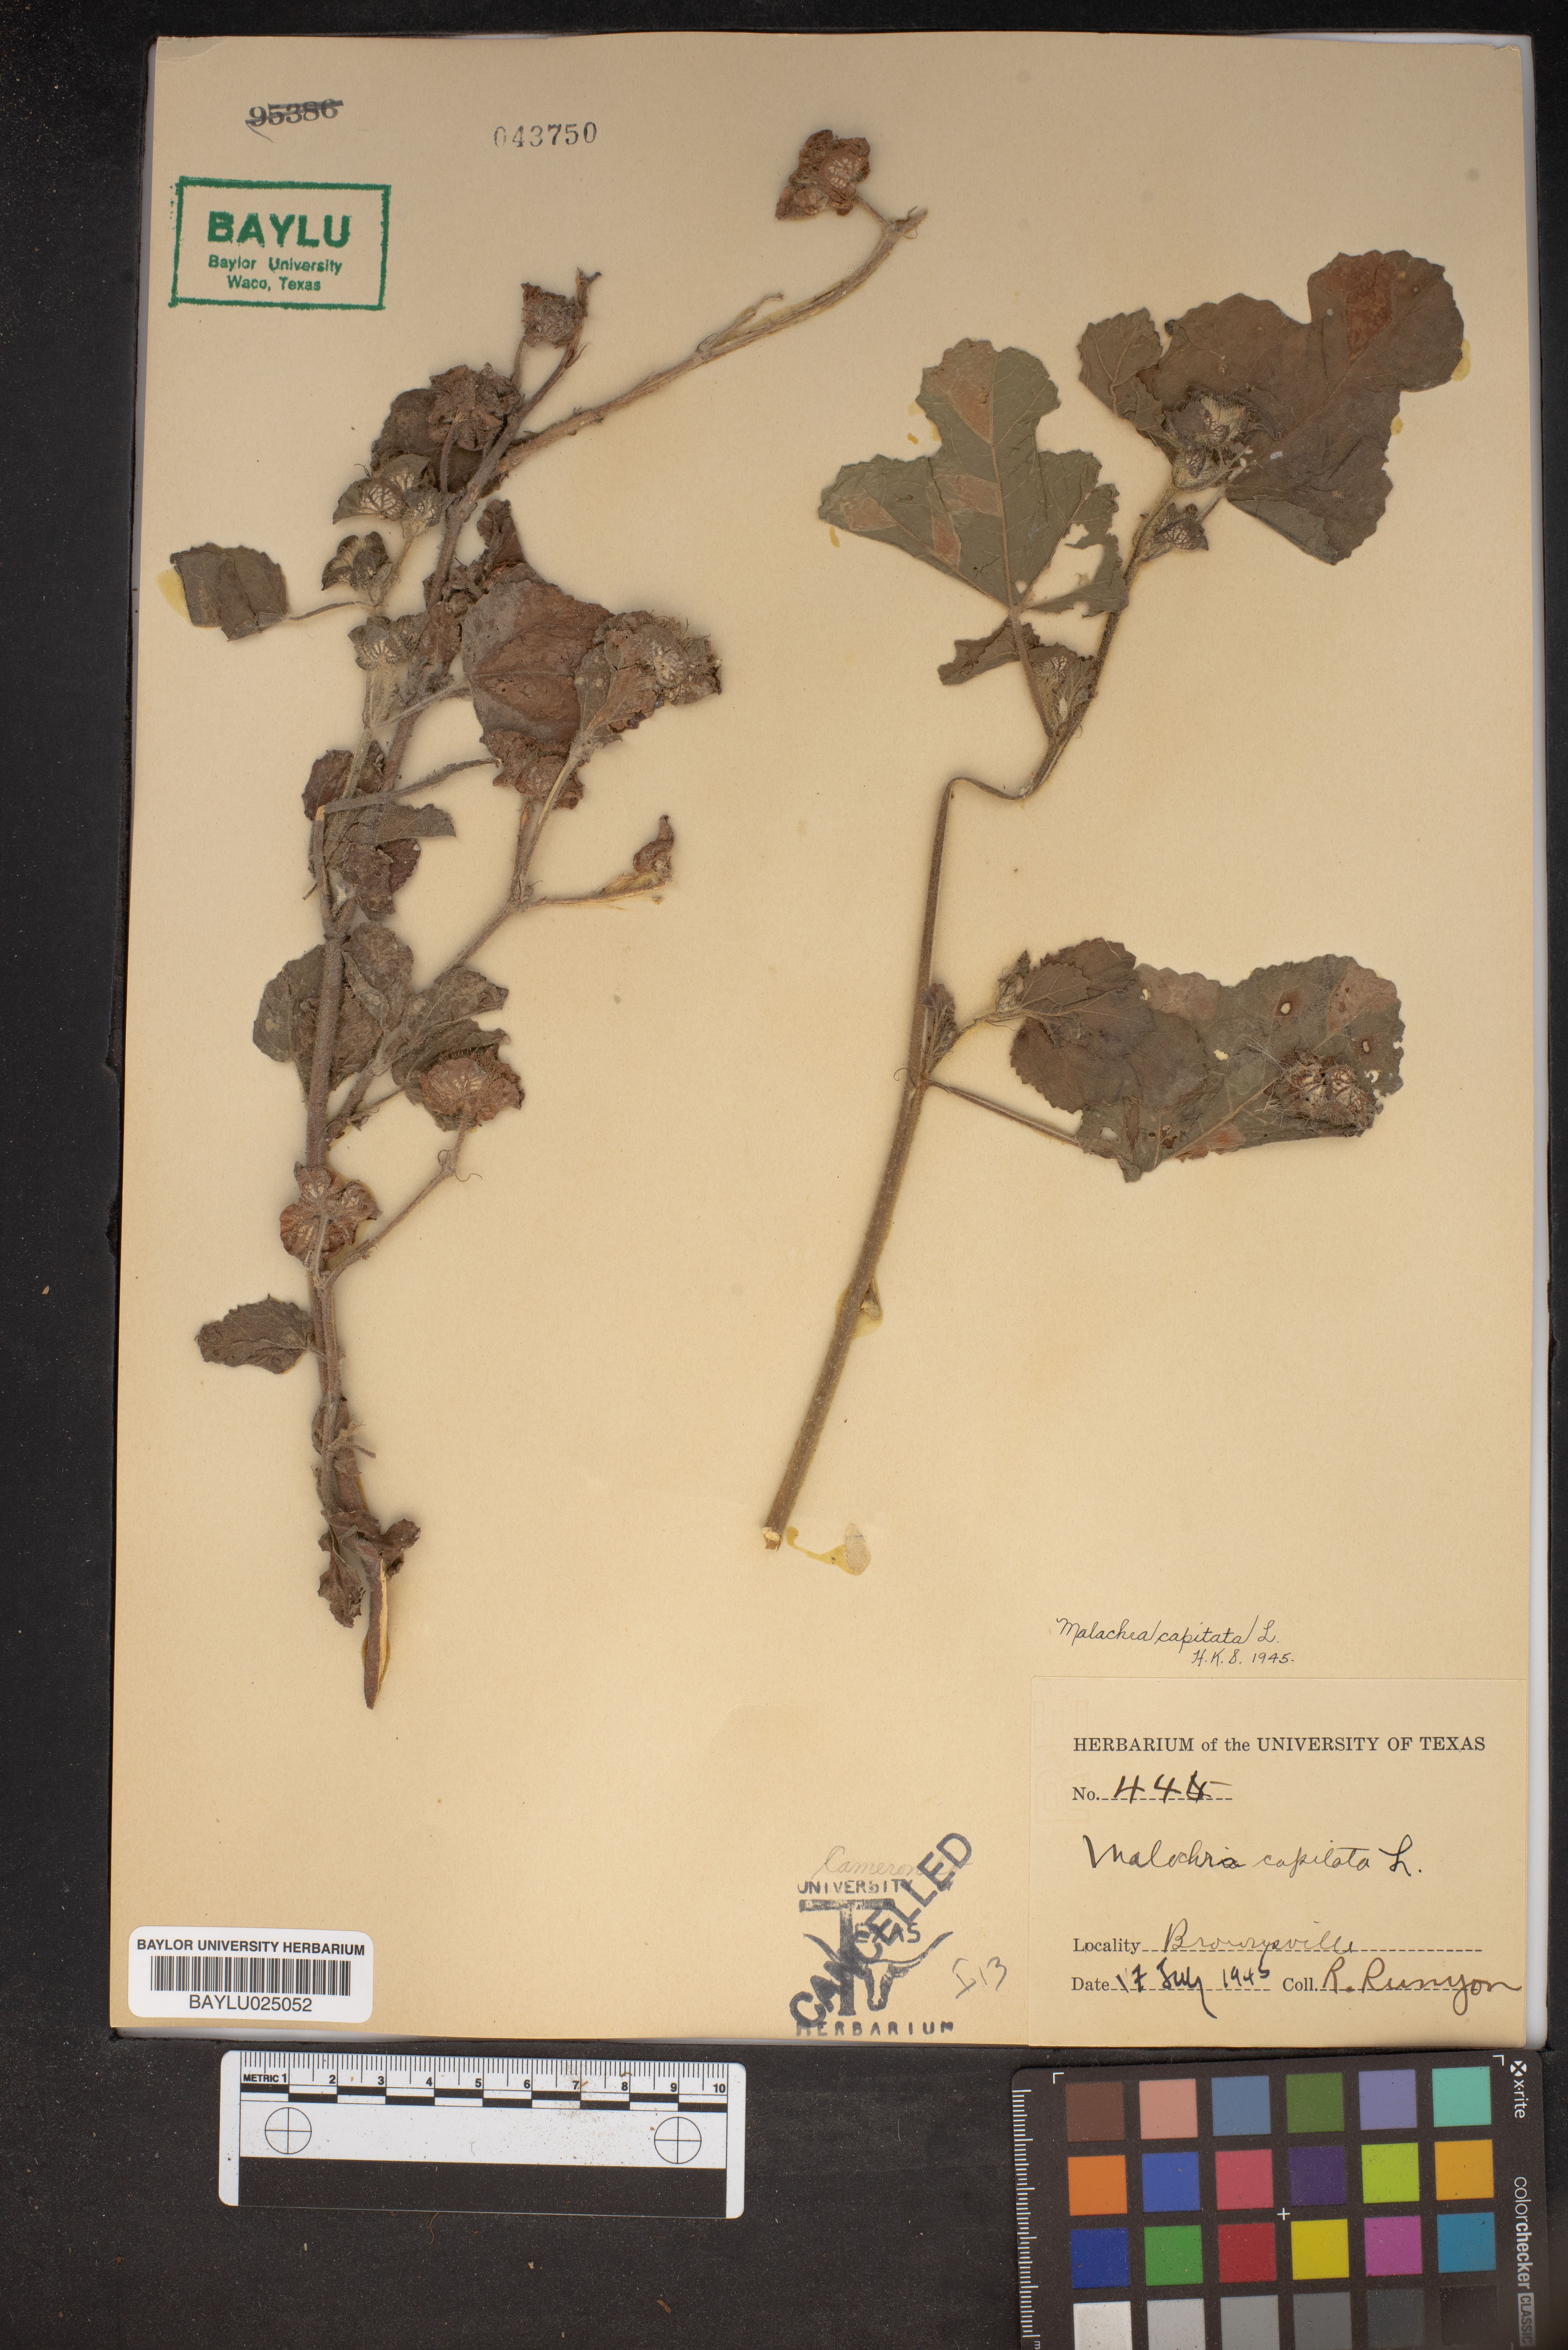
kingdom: Plantae
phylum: Tracheophyta
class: Magnoliopsida
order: Malvales
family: Malvaceae
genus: Malachra
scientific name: Malachra capitata
